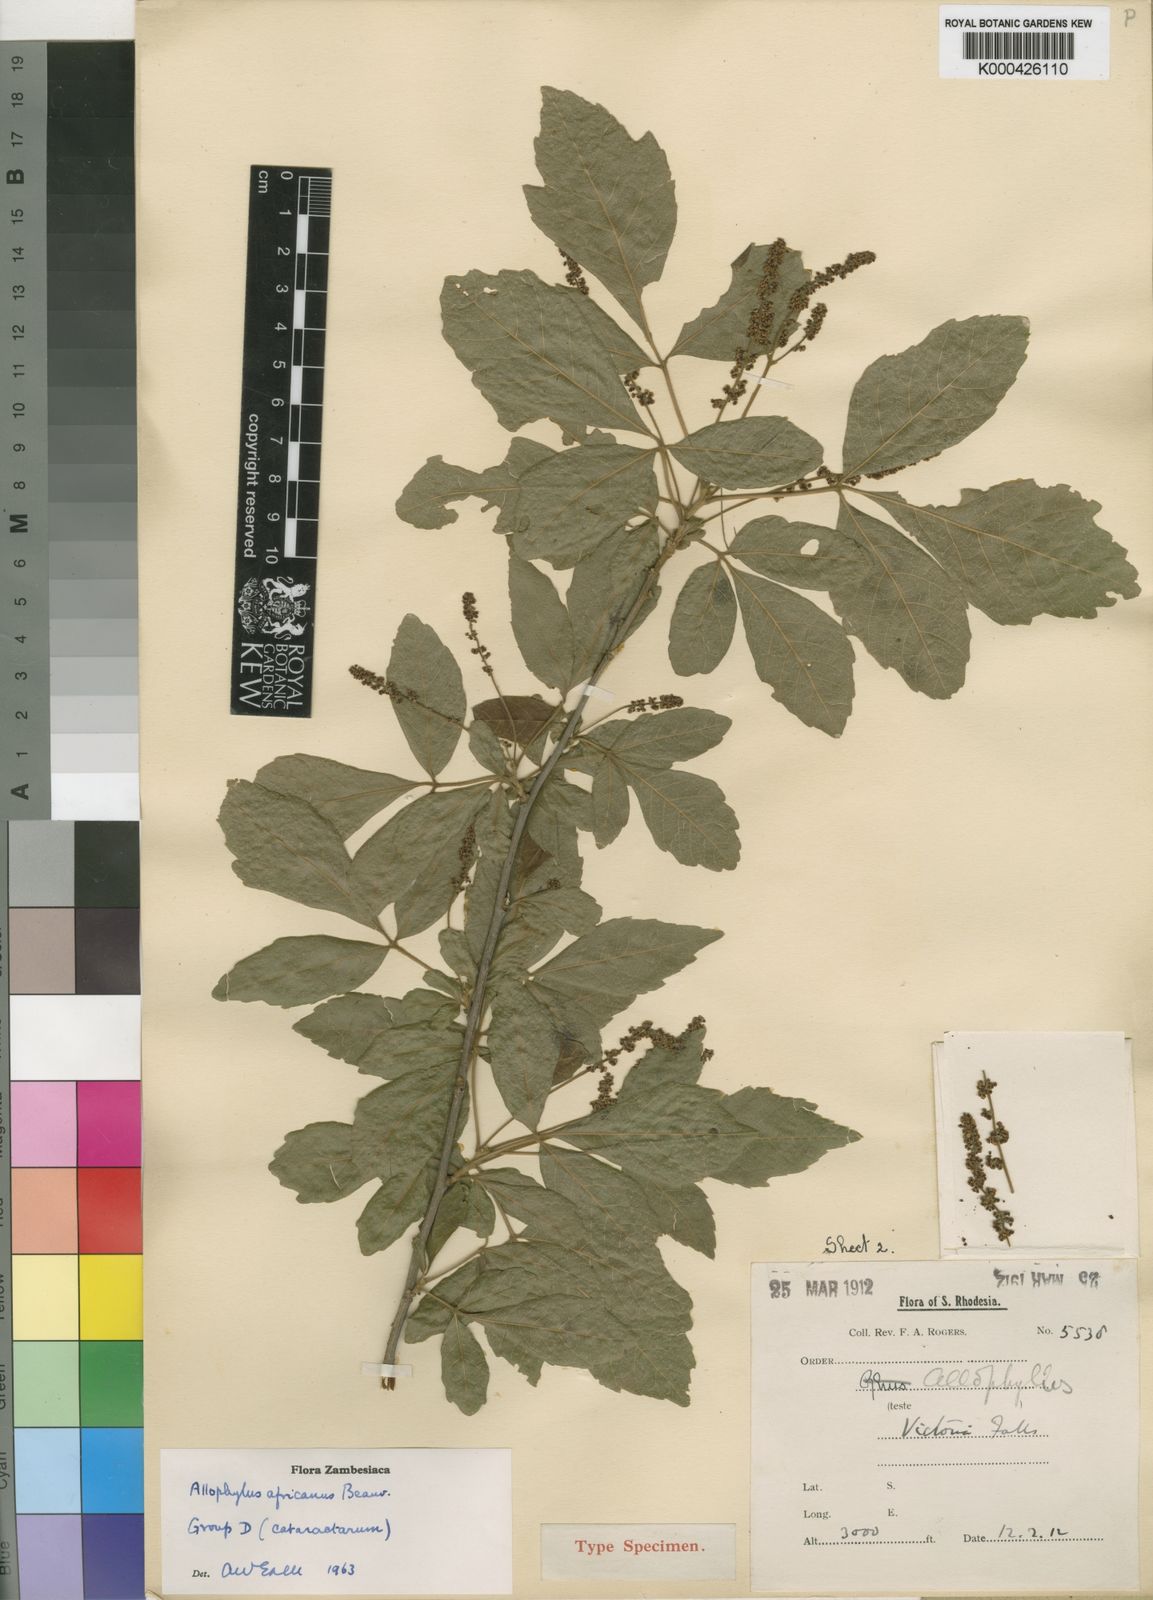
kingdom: Plantae
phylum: Tracheophyta
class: Magnoliopsida
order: Sapindales
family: Sapindaceae
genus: Allophylus
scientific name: Allophylus africanus
